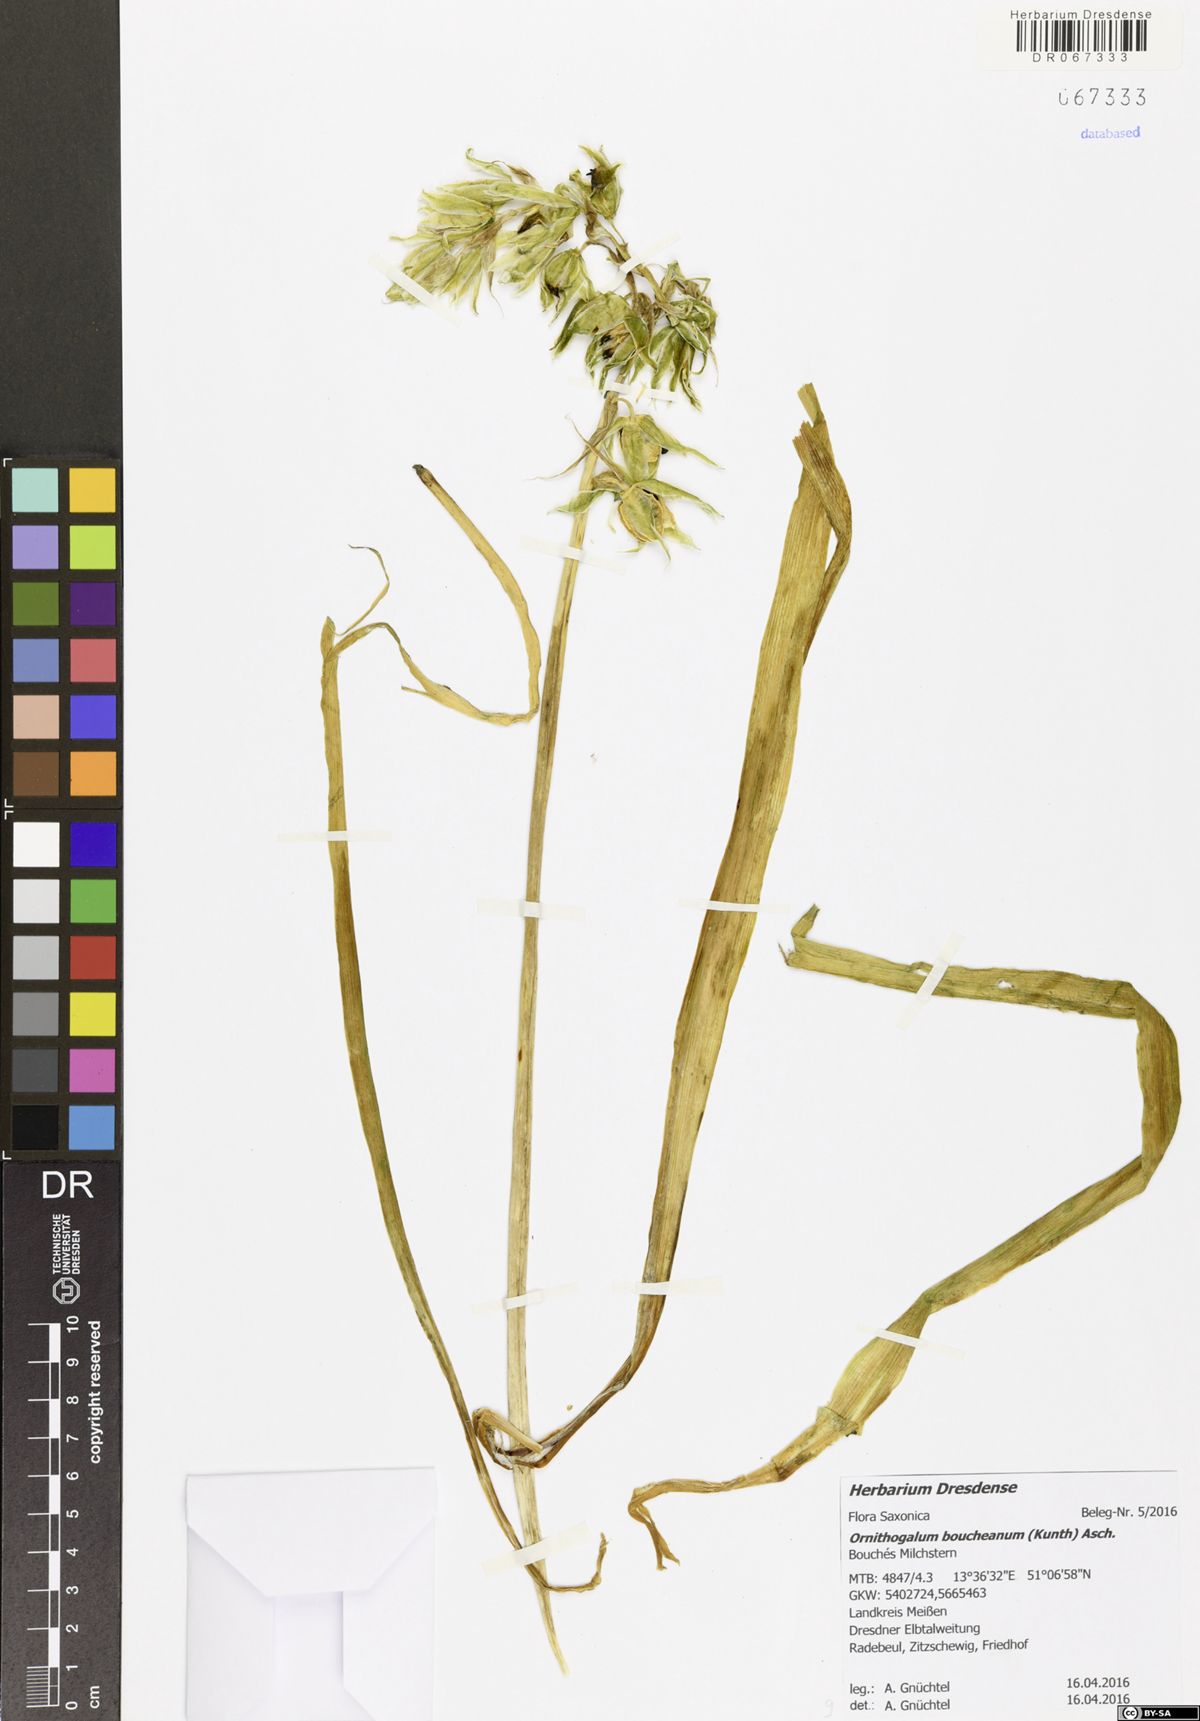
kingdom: Plantae
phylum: Tracheophyta
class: Liliopsida
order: Asparagales
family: Asparagaceae
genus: Ornithogalum
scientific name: Ornithogalum boucheanum
